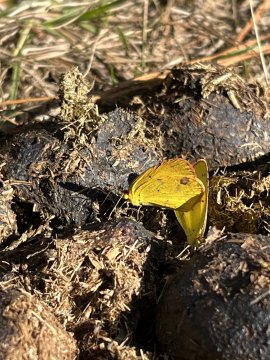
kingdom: Animalia
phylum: Arthropoda
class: Insecta
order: Lepidoptera
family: Pieridae
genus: Pyrisitia
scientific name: Pyrisitia lisa
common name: Little Yellow
